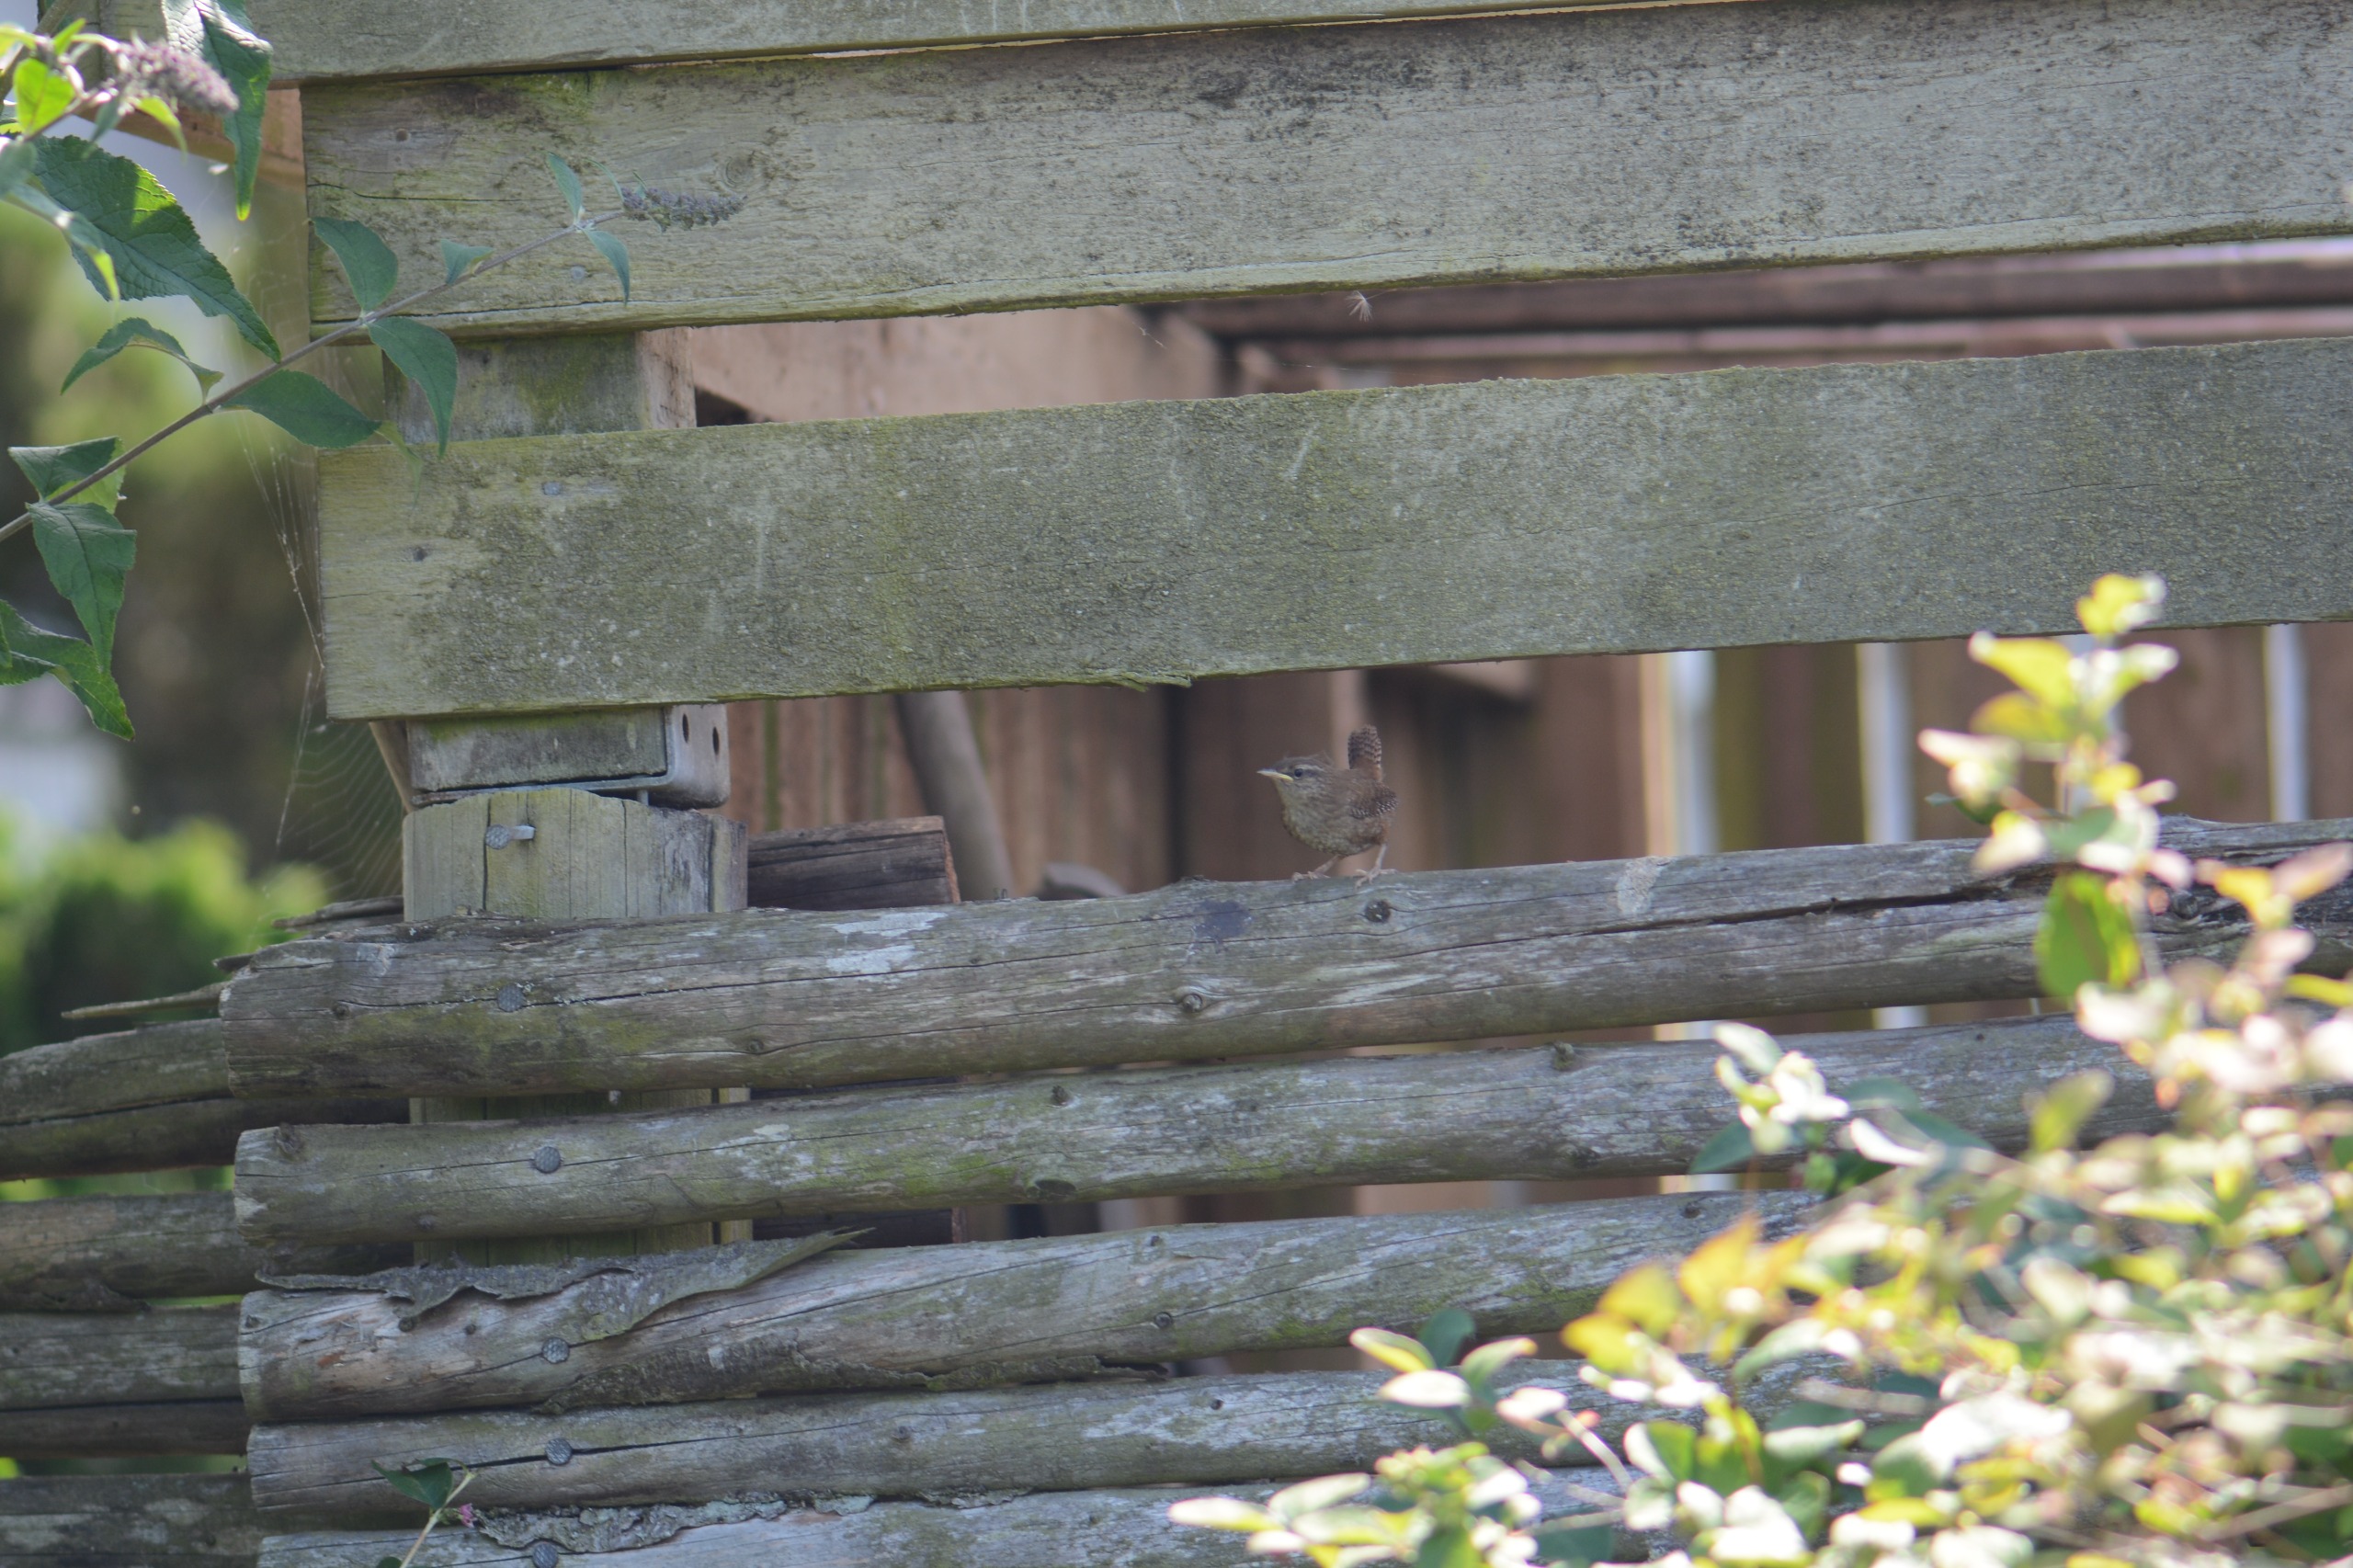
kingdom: Animalia
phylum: Chordata
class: Aves
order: Passeriformes
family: Troglodytidae
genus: Troglodytes
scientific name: Troglodytes troglodytes
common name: Gærdesmutte
